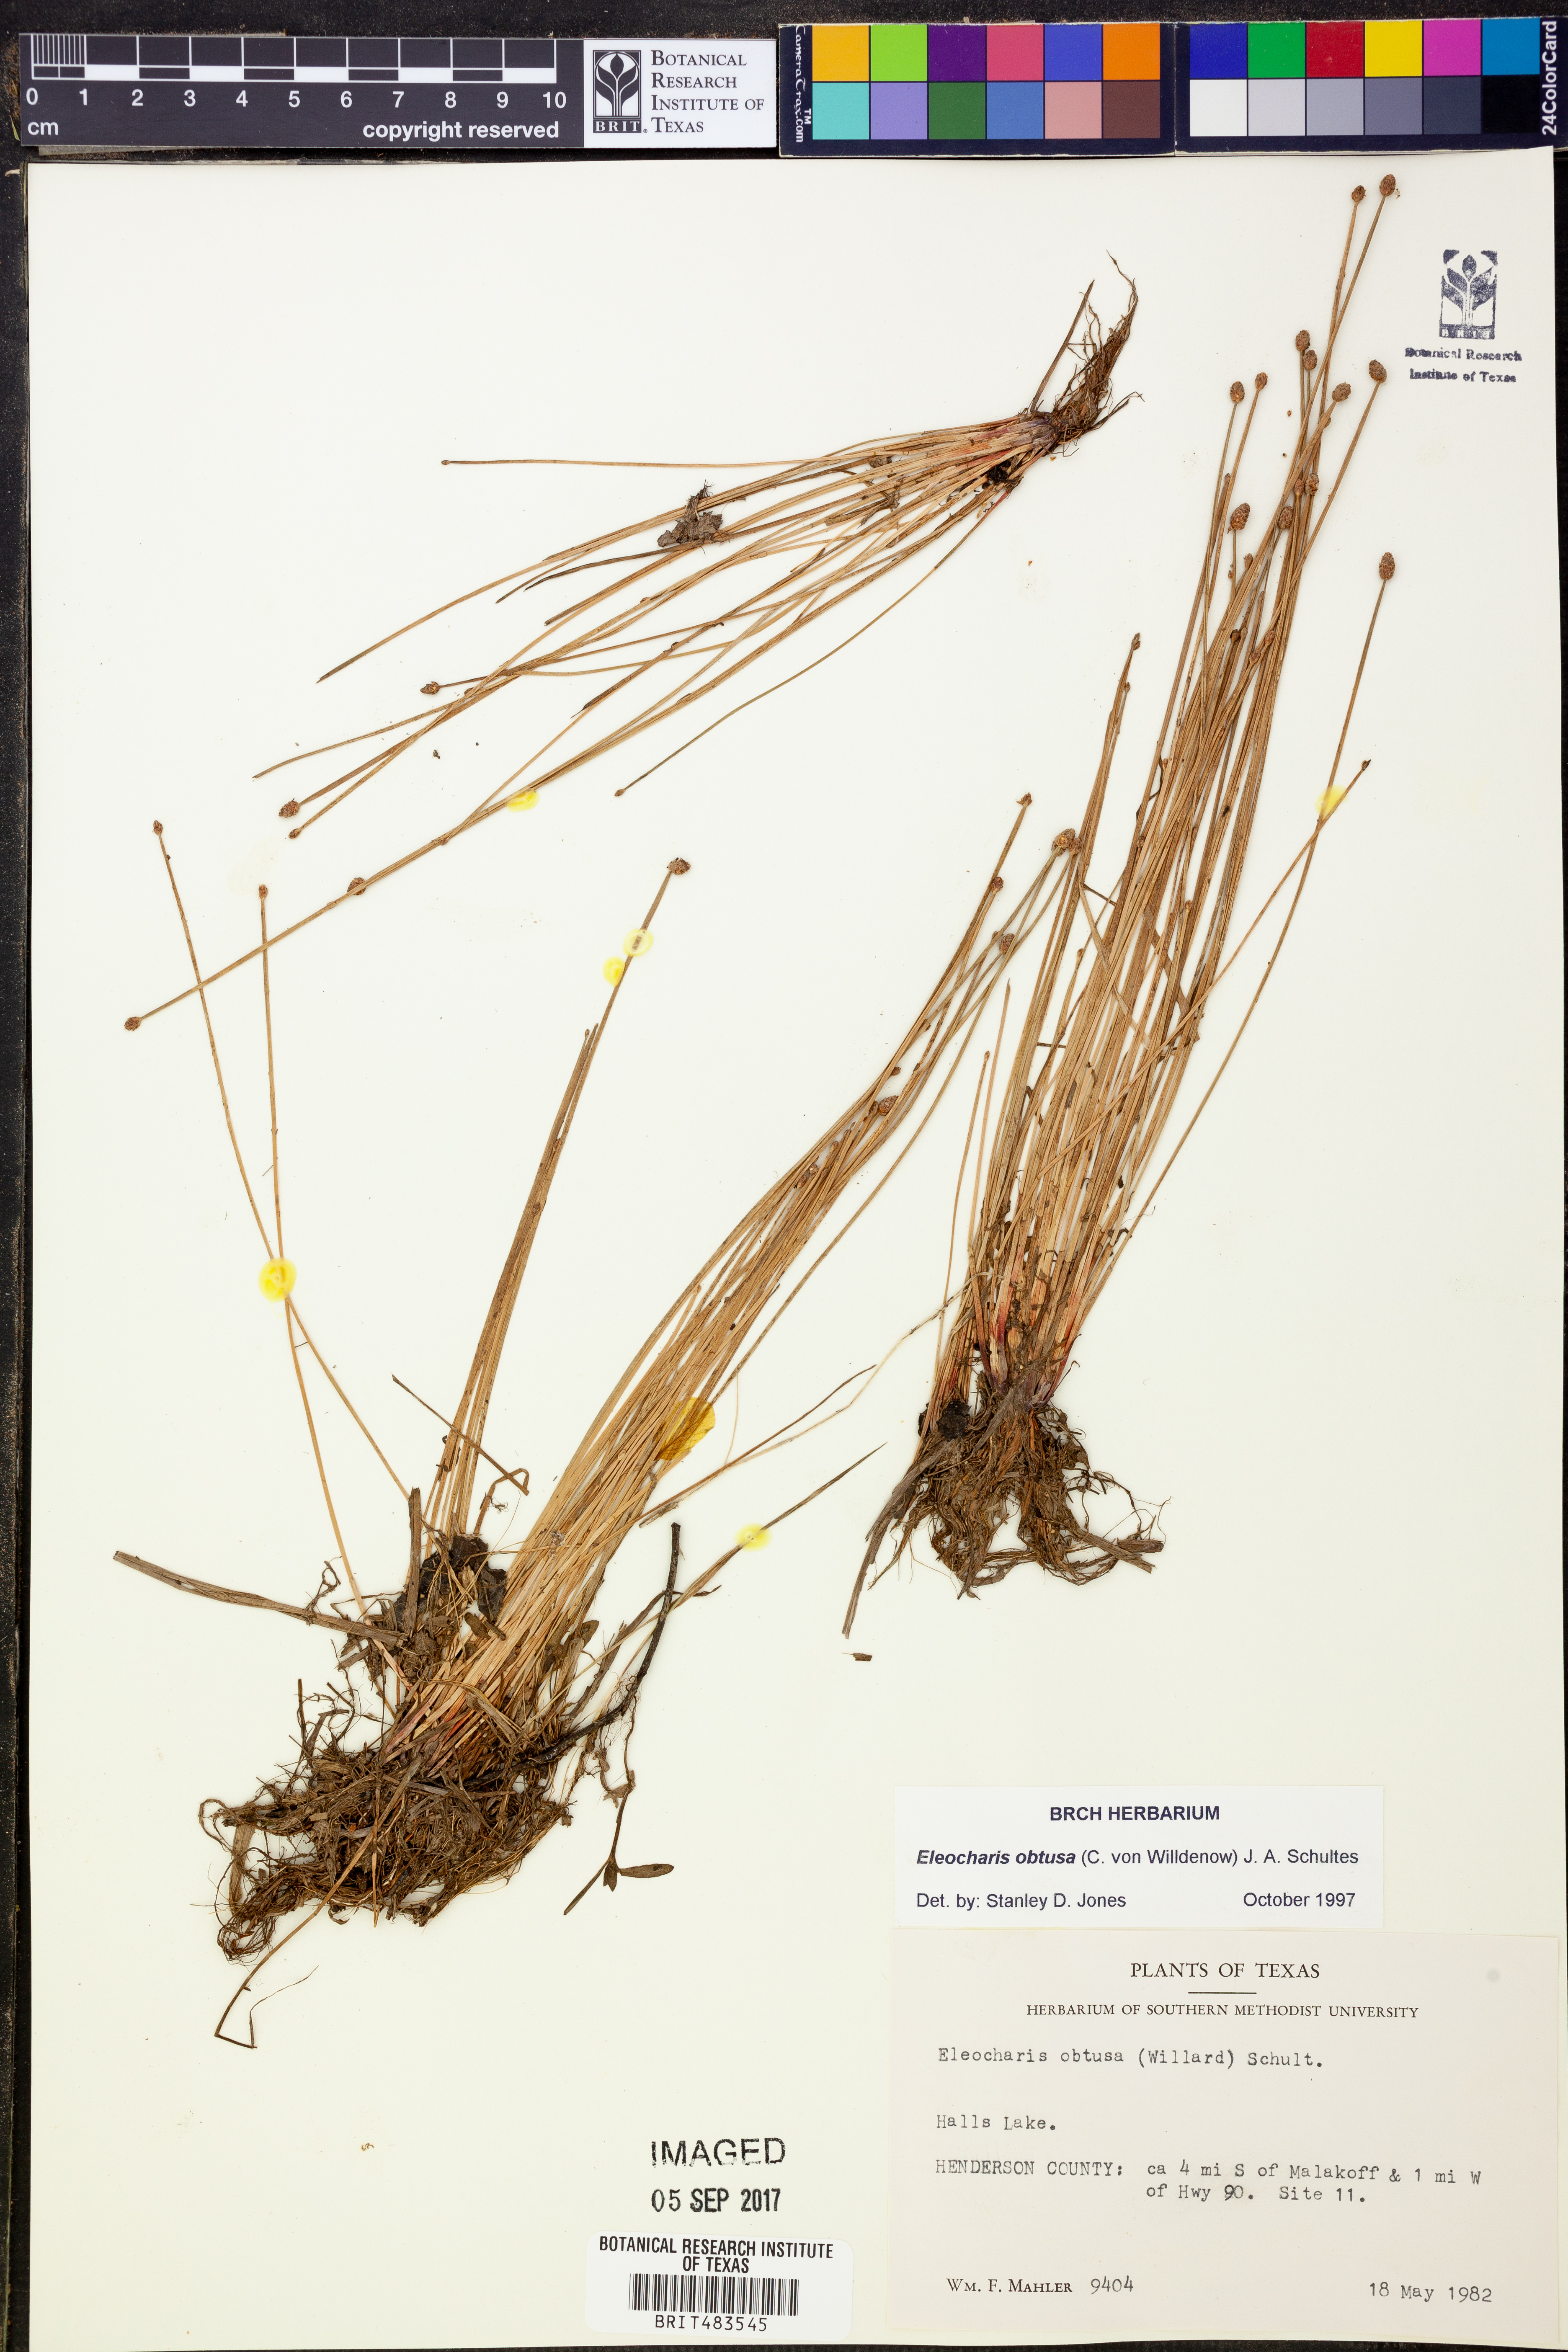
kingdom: Plantae
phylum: Tracheophyta
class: Liliopsida
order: Poales
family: Cyperaceae
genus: Eleocharis
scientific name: Eleocharis obtusa
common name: Blunt spikerush
